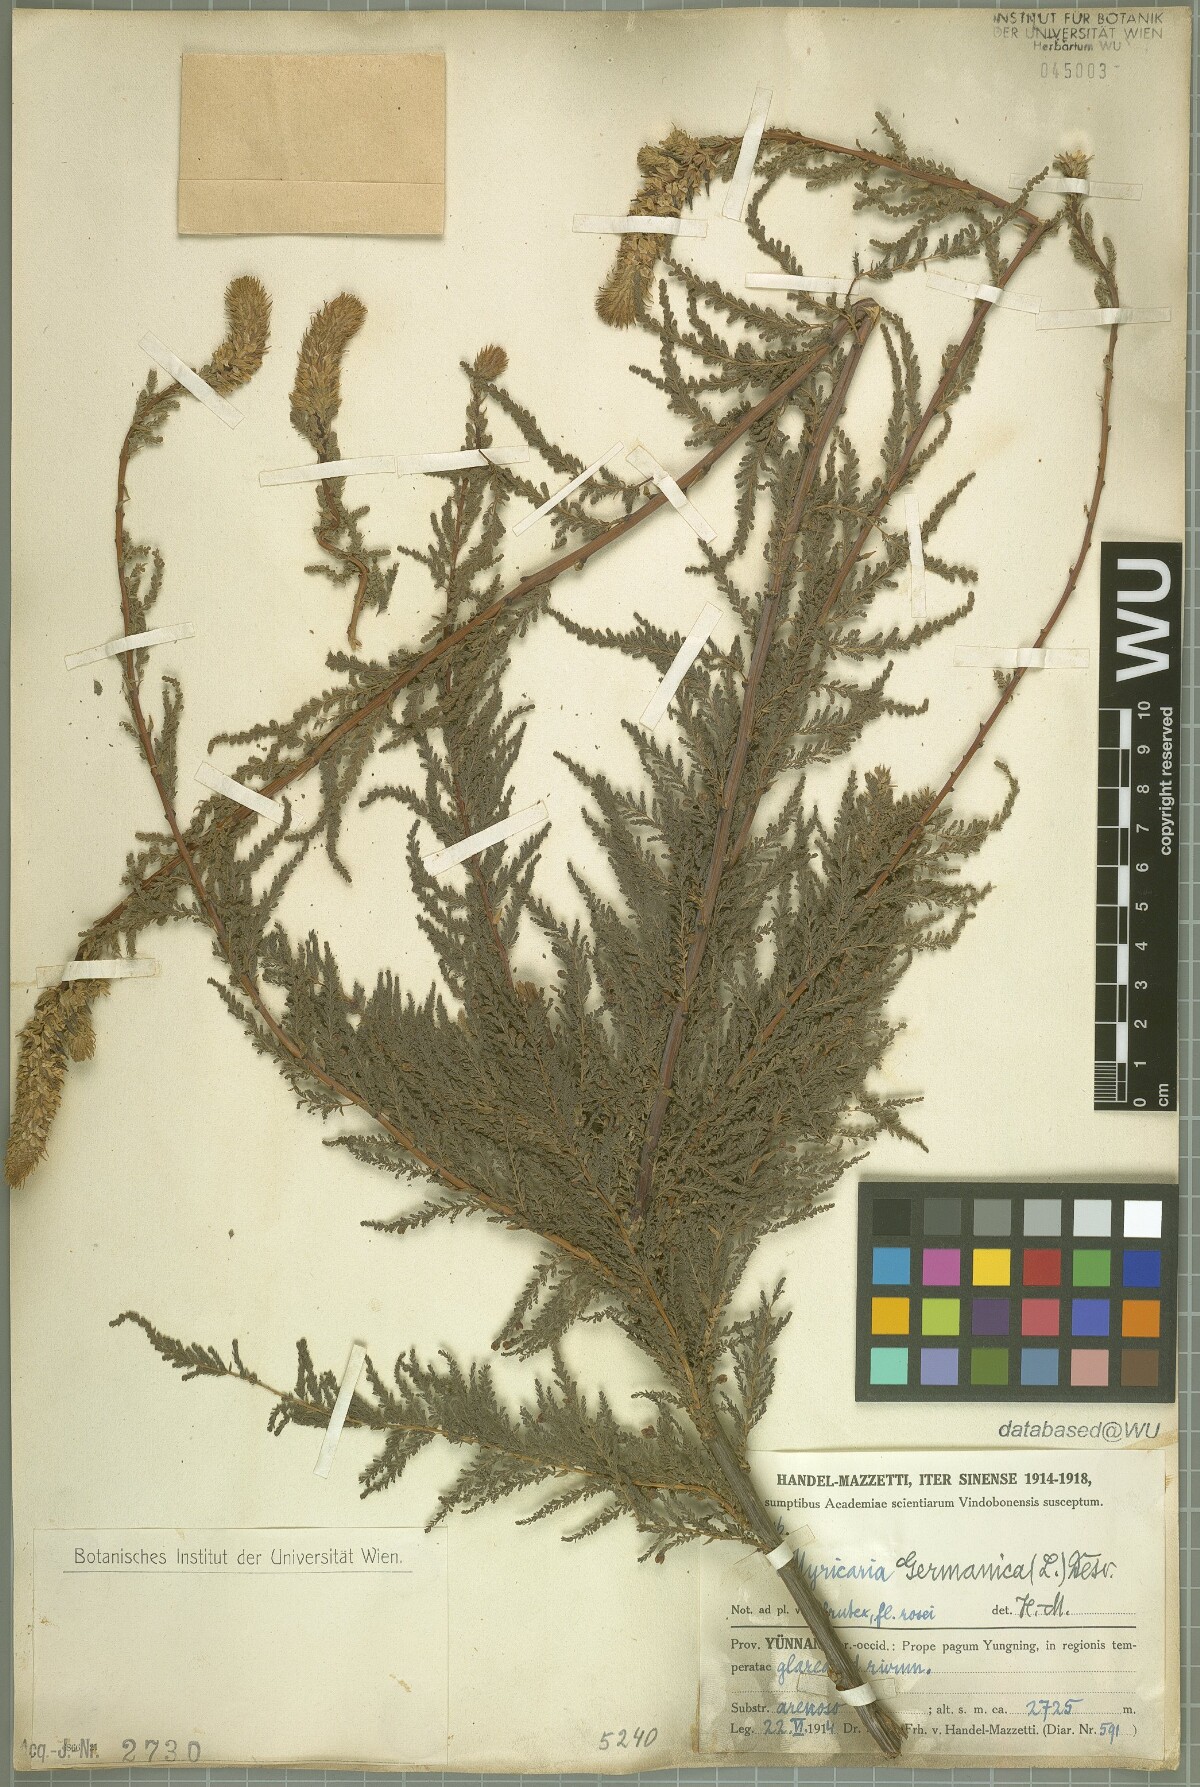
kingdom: Plantae
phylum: Tracheophyta
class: Magnoliopsida
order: Caryophyllales
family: Tamaricaceae
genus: Myricaria
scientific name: Myricaria germanica
